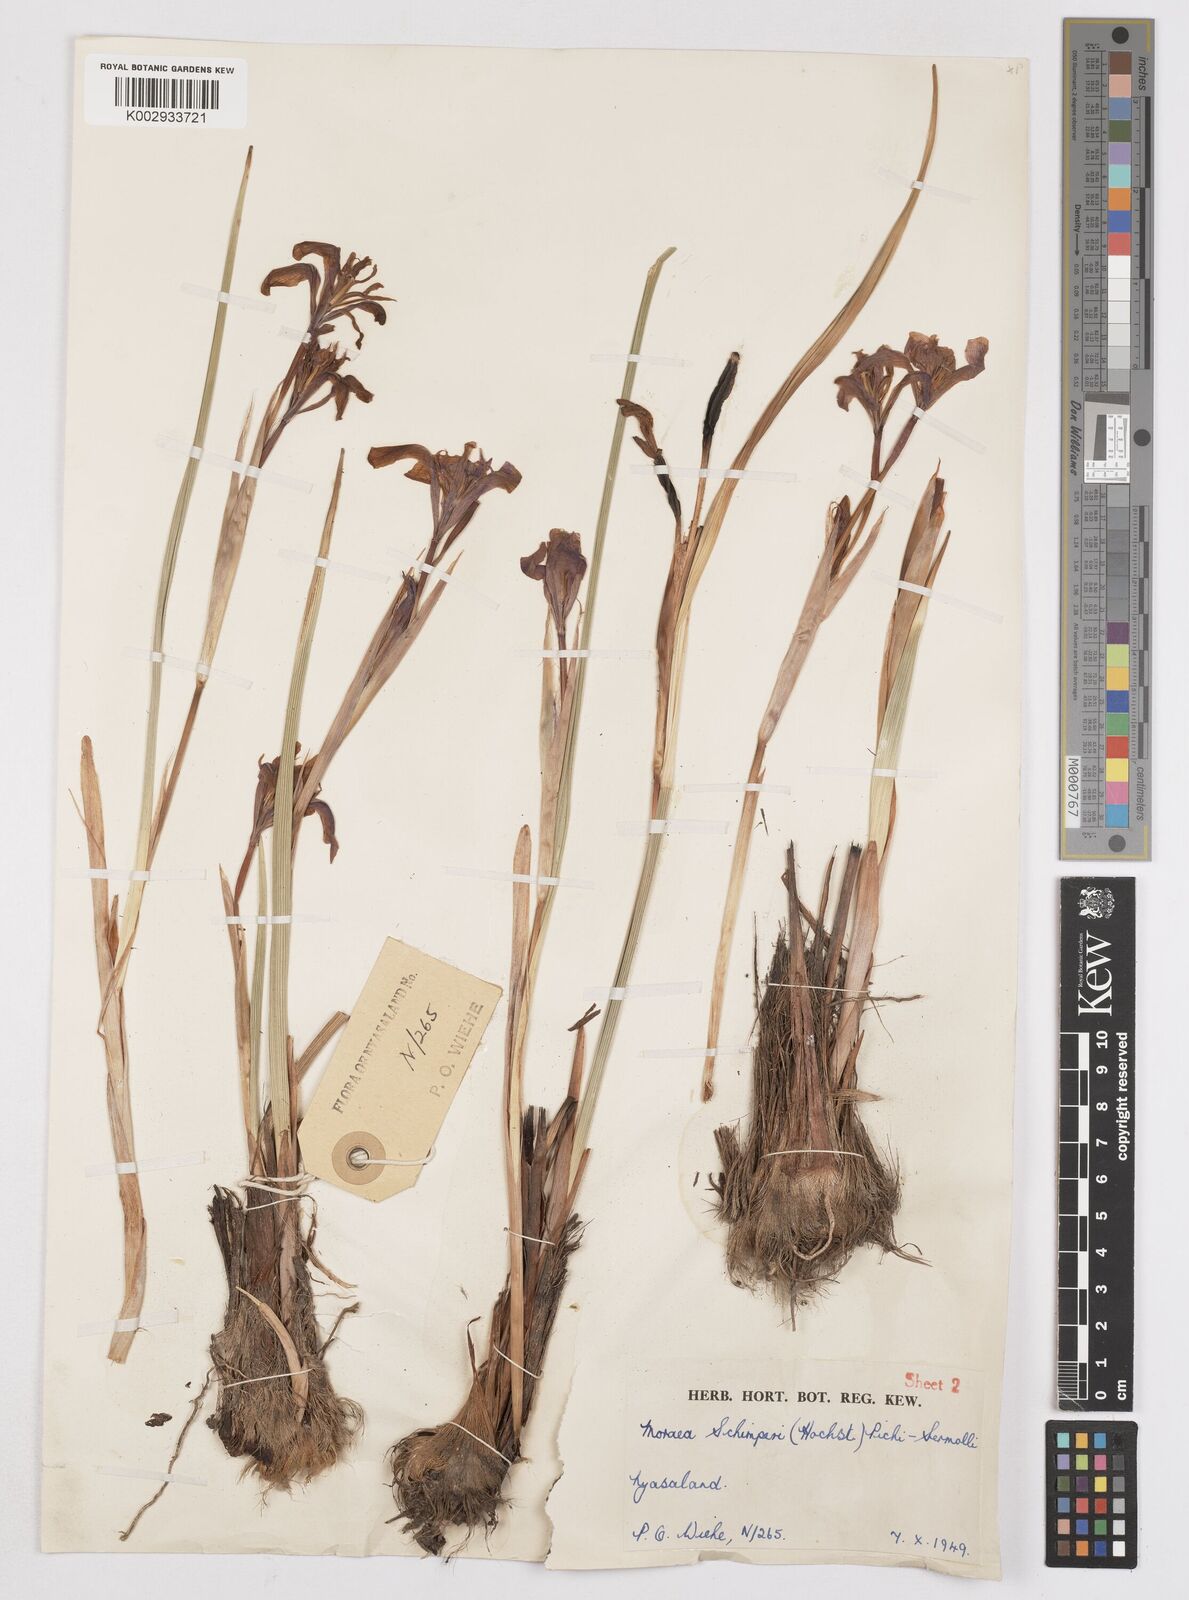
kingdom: Plantae
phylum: Tracheophyta
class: Liliopsida
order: Asparagales
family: Iridaceae
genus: Moraea
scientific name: Moraea schimperi
